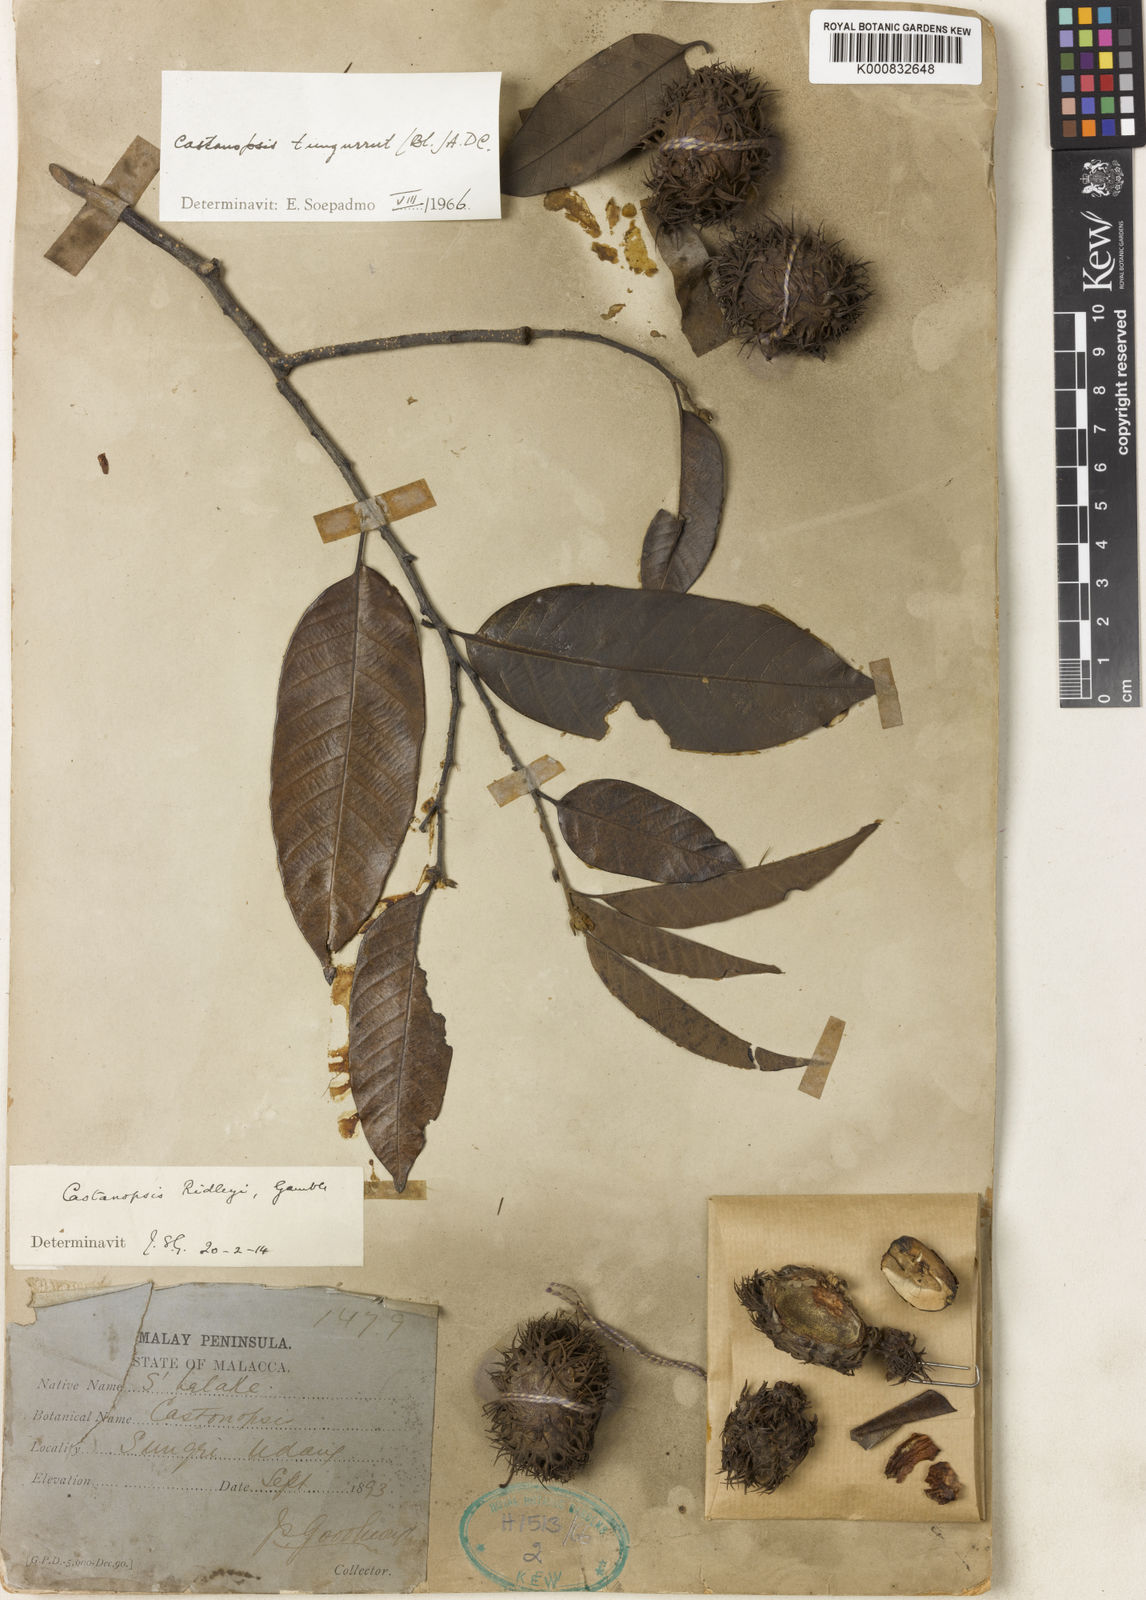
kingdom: Plantae
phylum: Tracheophyta
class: Magnoliopsida
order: Fagales
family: Fagaceae
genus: Castanopsis
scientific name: Castanopsis tungurrut
